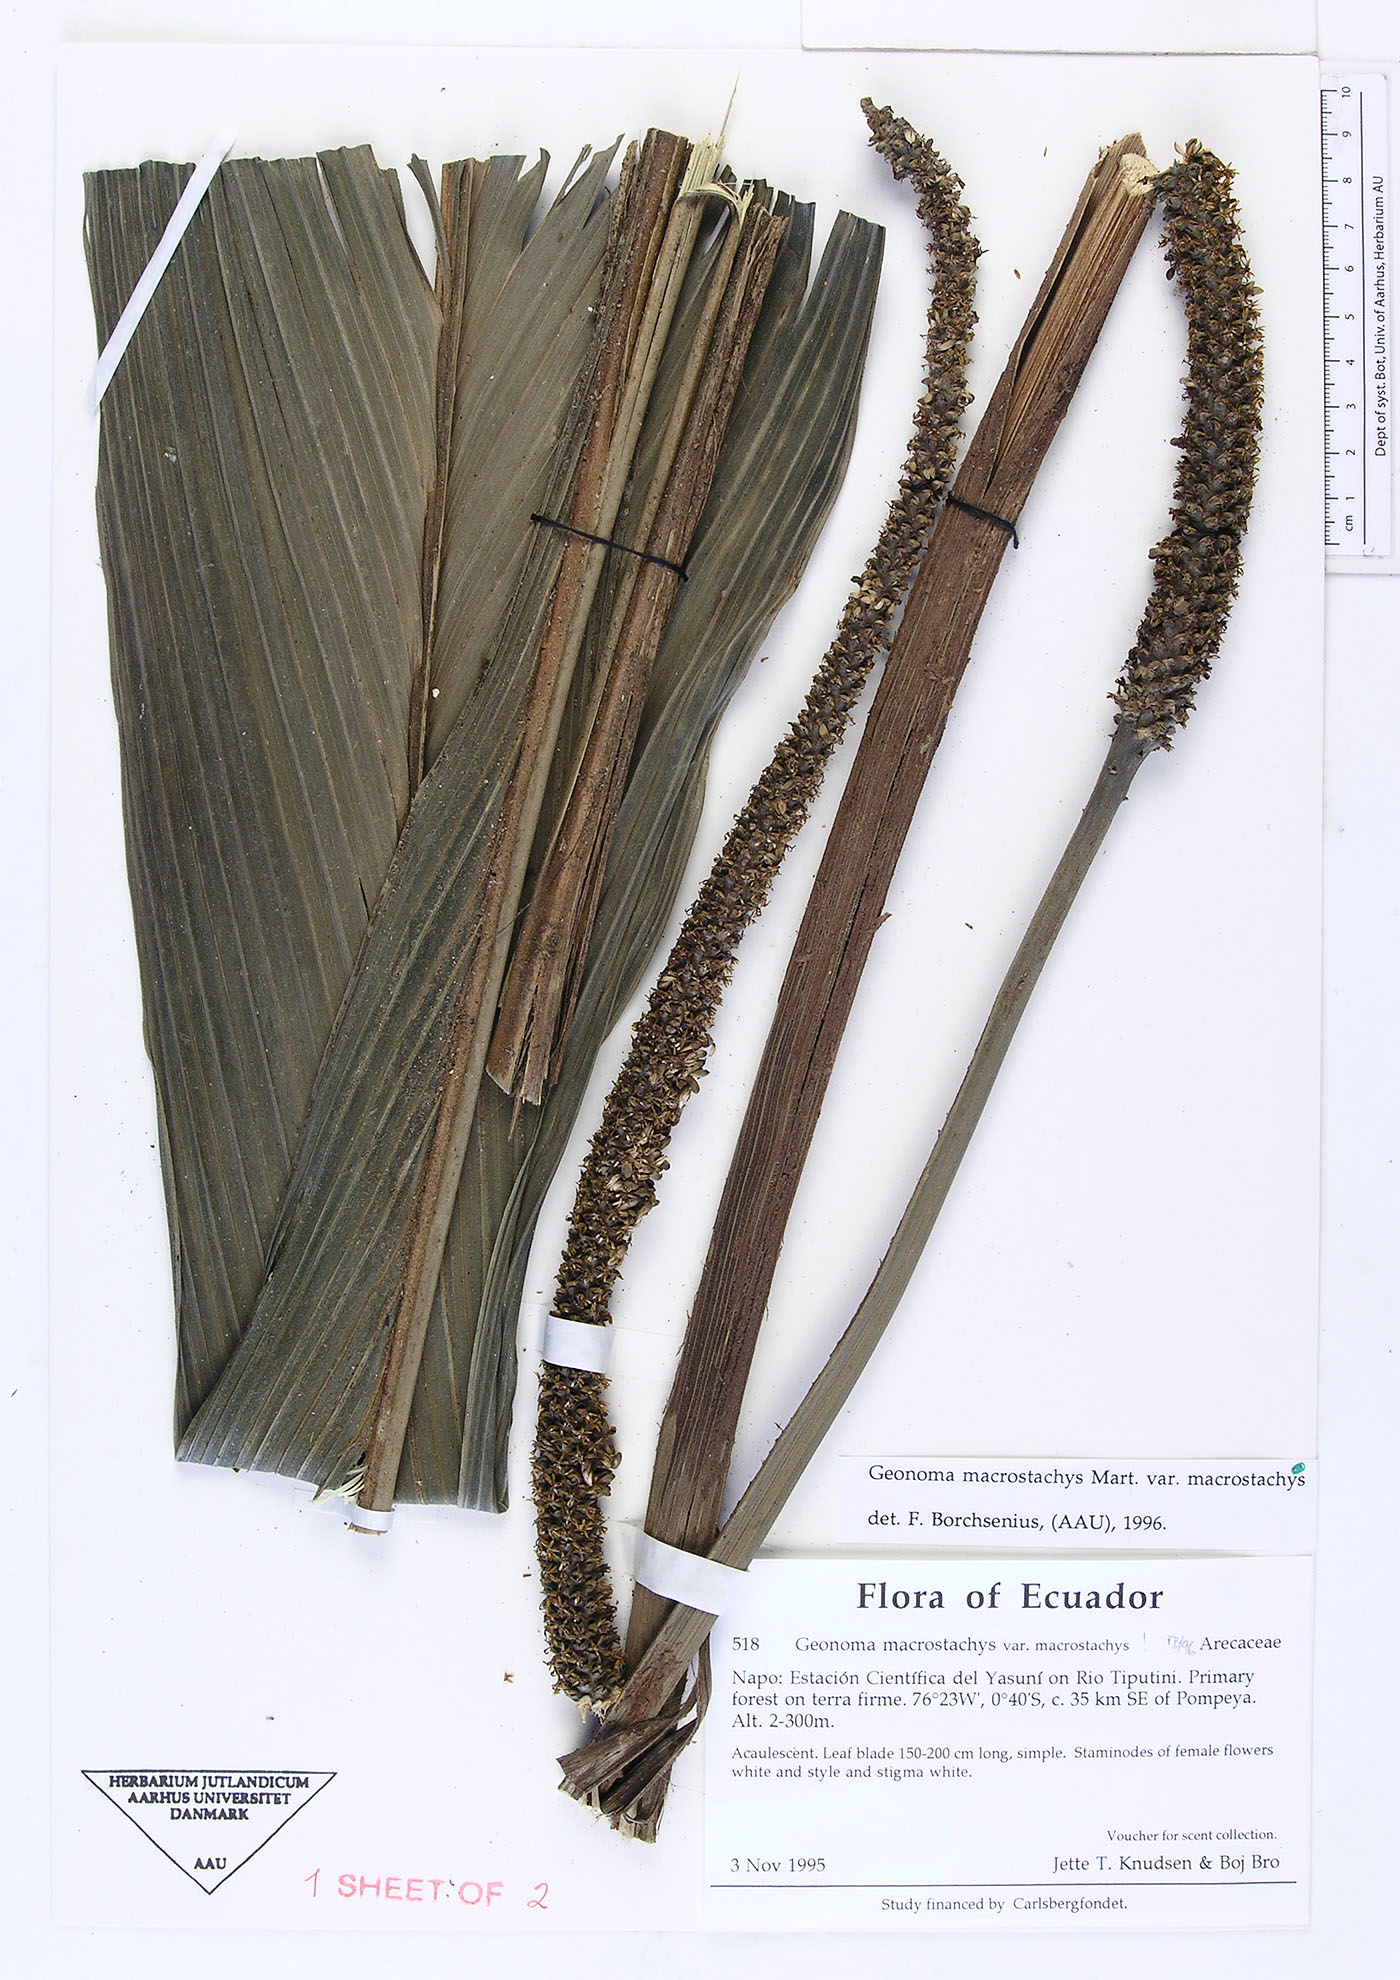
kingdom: Plantae
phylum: Tracheophyta
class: Liliopsida
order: Arecales
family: Arecaceae
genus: Geonoma
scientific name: Geonoma macrostachys
